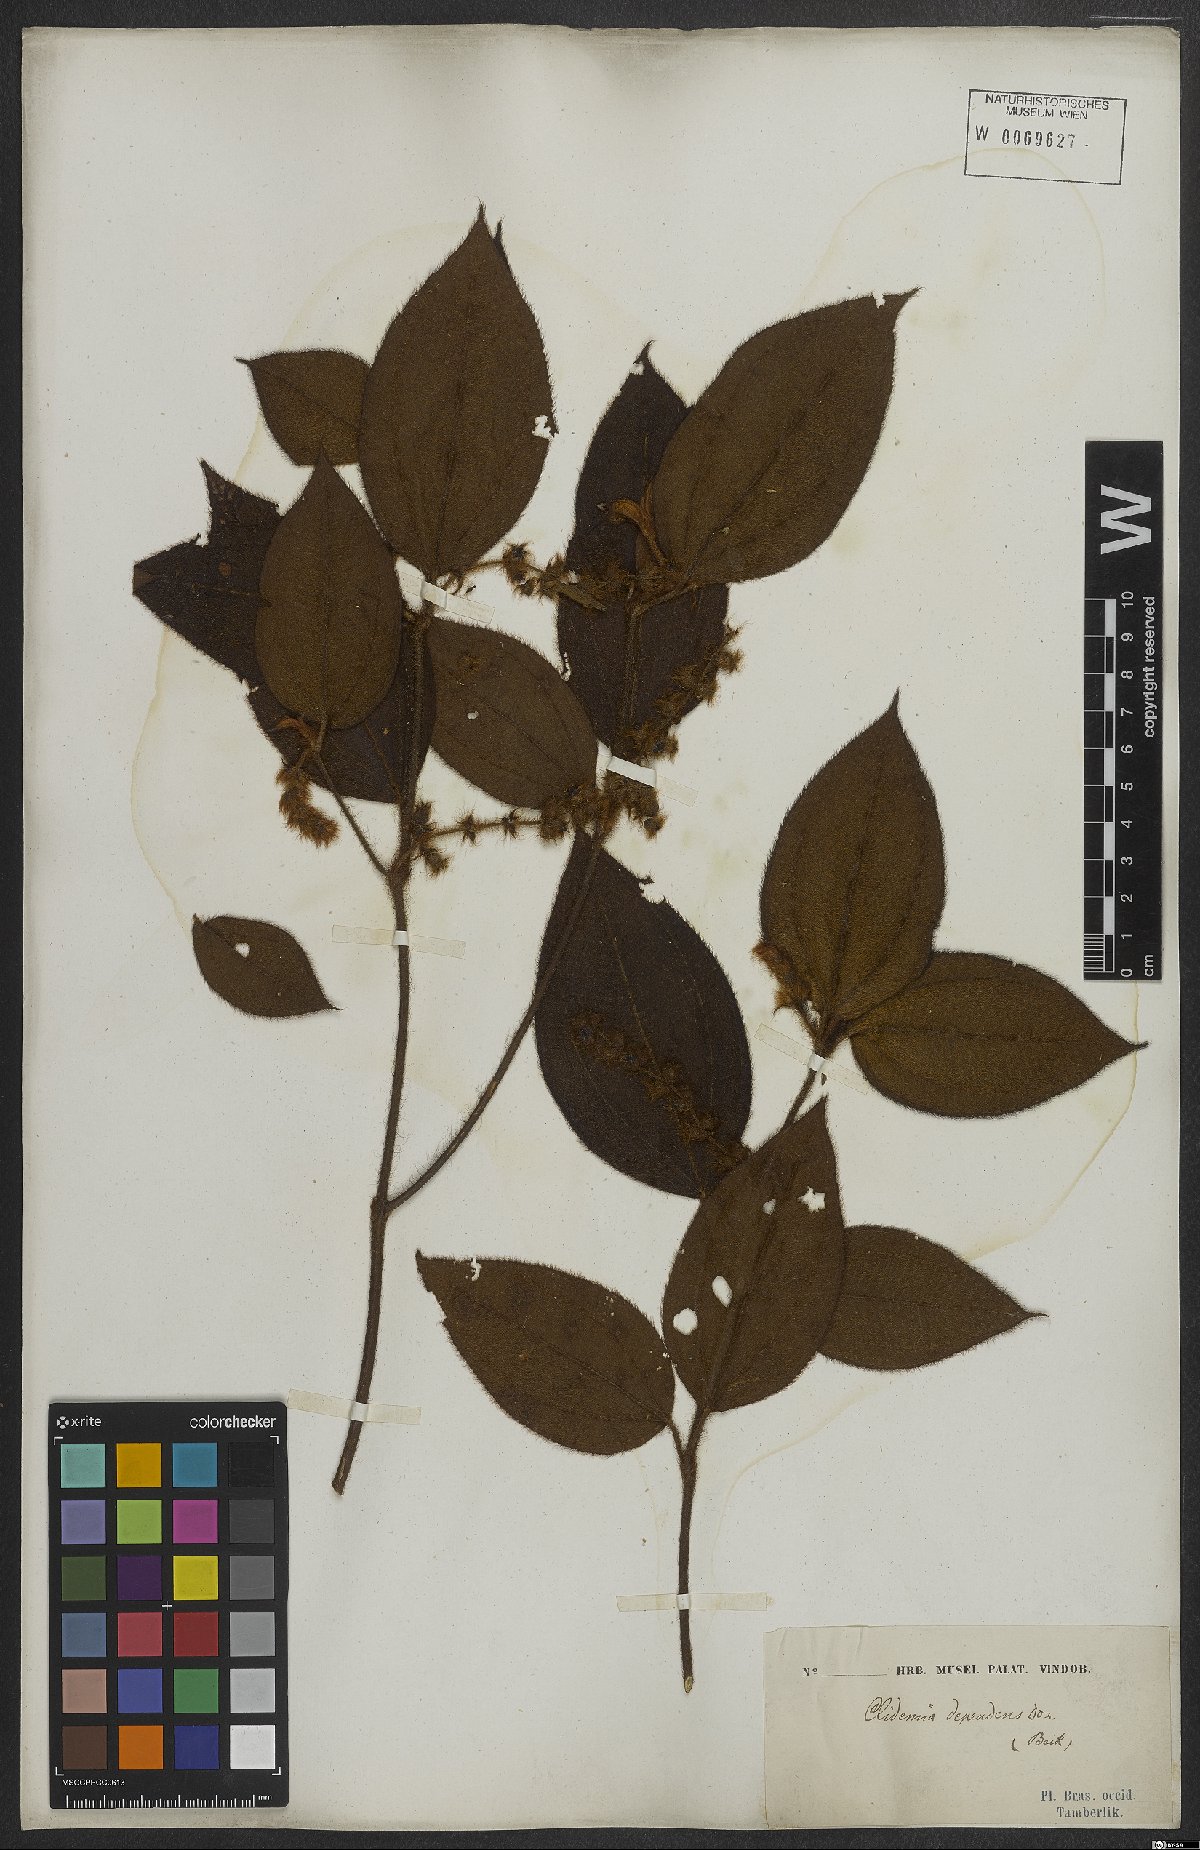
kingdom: Plantae
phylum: Tracheophyta
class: Magnoliopsida
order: Myrtales
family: Melastomataceae
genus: Miconia
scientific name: Miconia dependens
